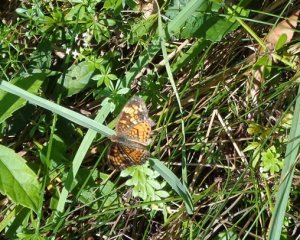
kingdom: Animalia
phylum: Arthropoda
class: Insecta
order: Lepidoptera
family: Nymphalidae
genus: Phyciodes
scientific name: Phyciodes tharos
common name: Pearl Crescent
